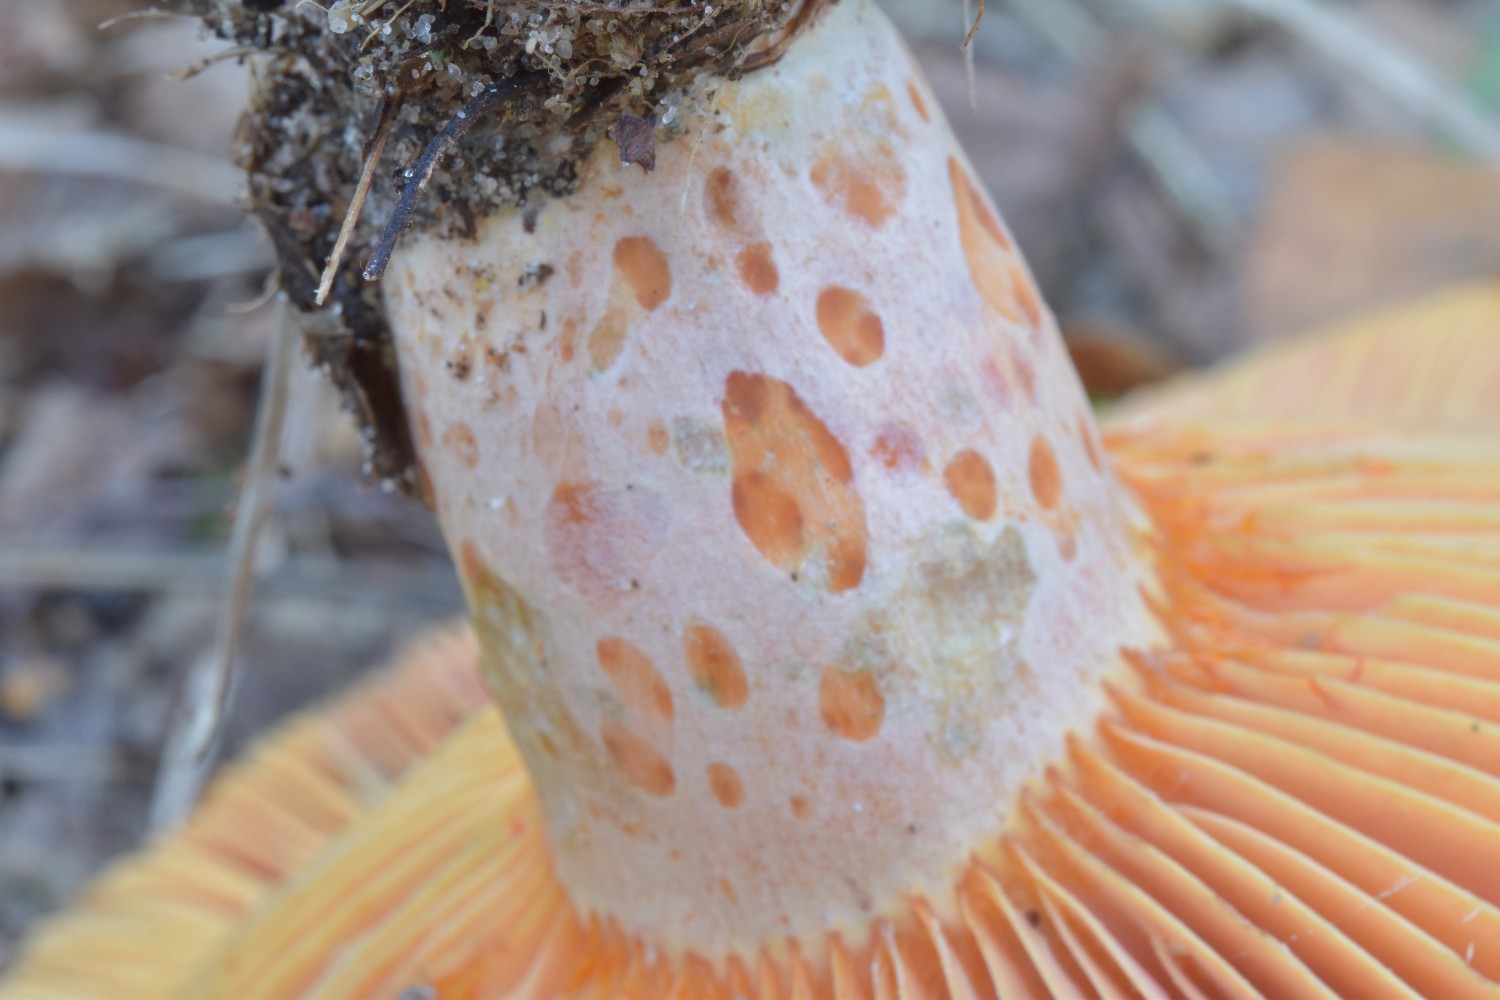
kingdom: Fungi
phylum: Basidiomycota
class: Agaricomycetes
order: Russulales
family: Russulaceae
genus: Lactarius
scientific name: Lactarius deliciosus
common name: velsmagende mælkehat
